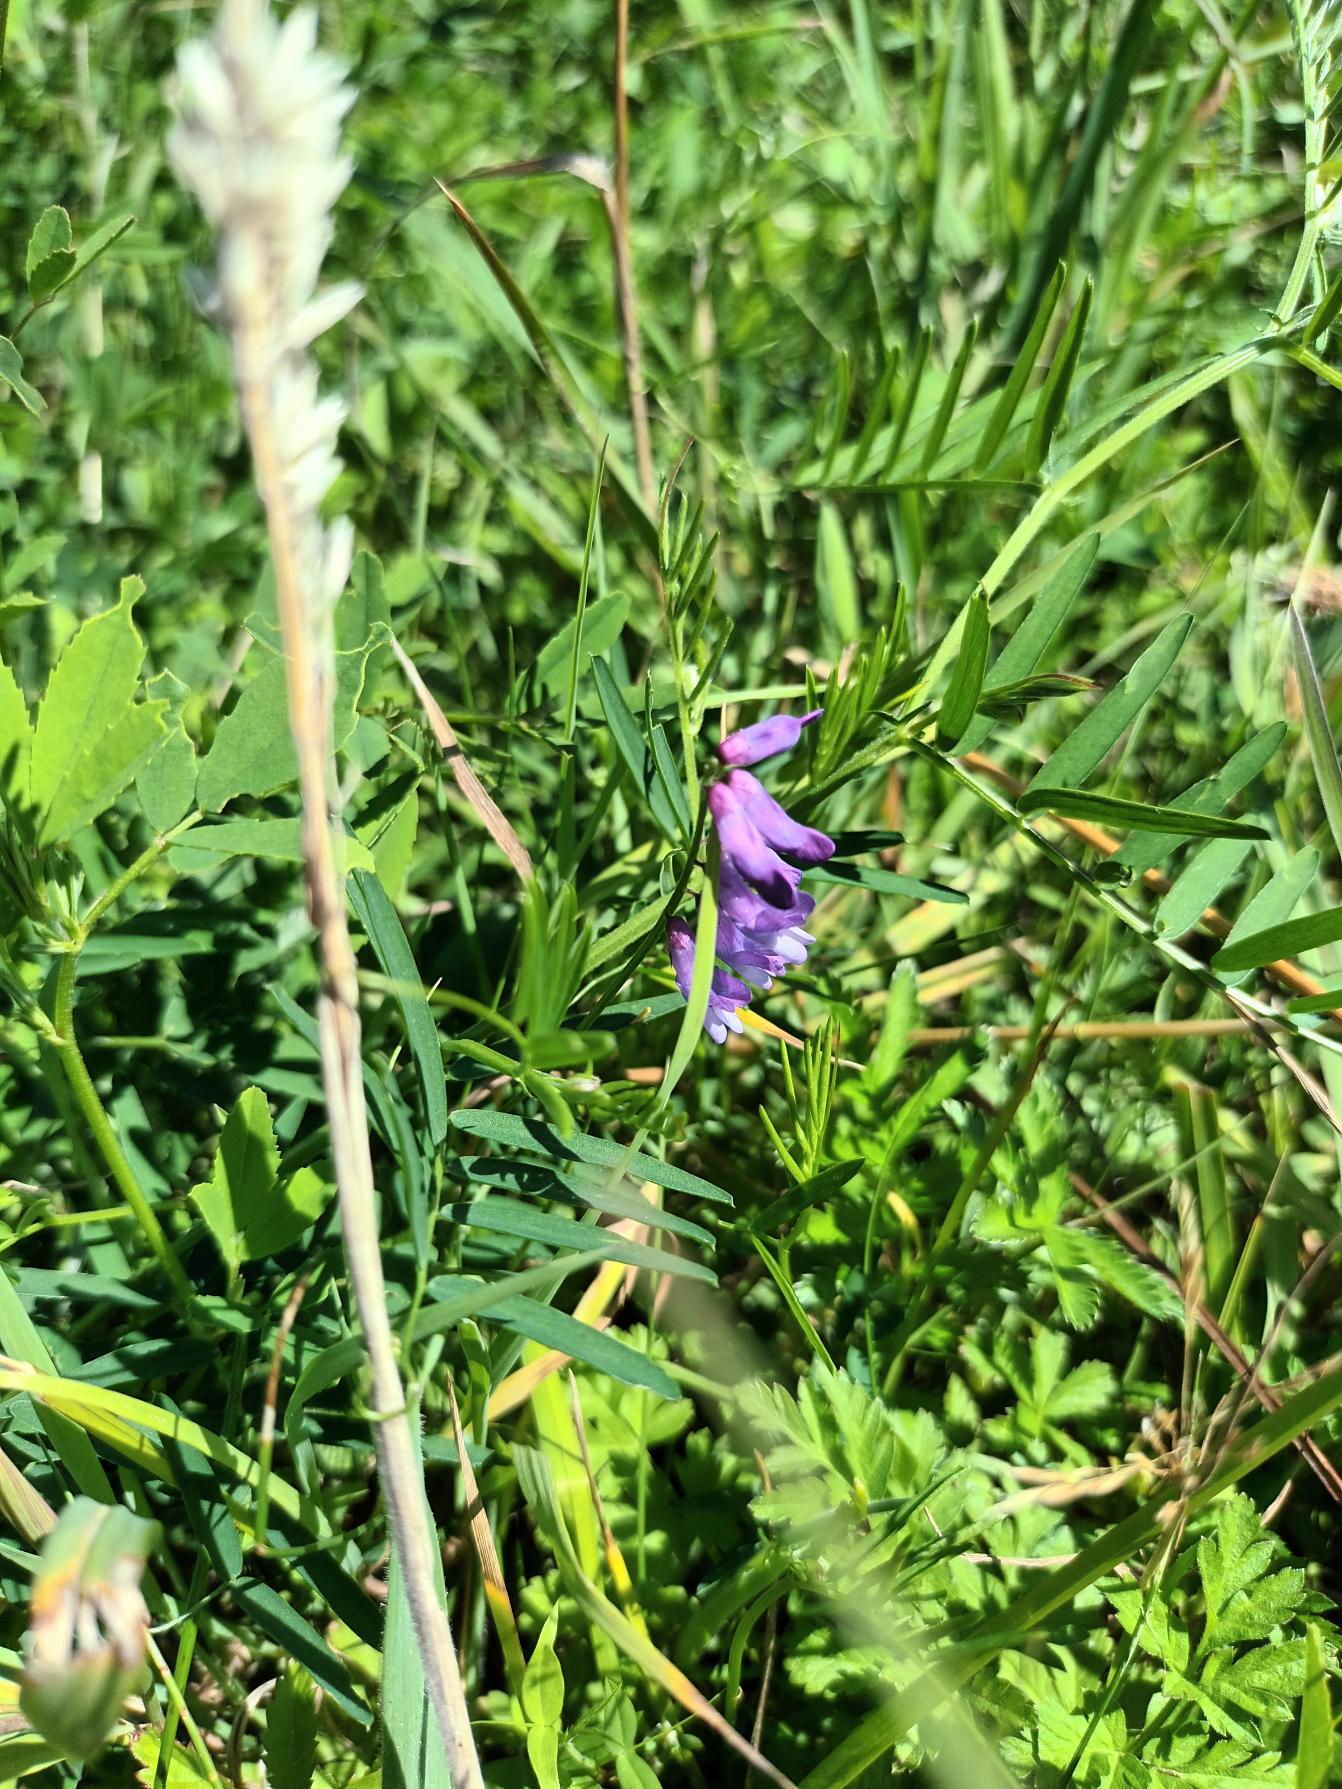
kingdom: Plantae
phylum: Tracheophyta
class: Magnoliopsida
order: Fabales
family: Fabaceae
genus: Vicia
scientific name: Vicia cracca
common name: Muse-vikke
